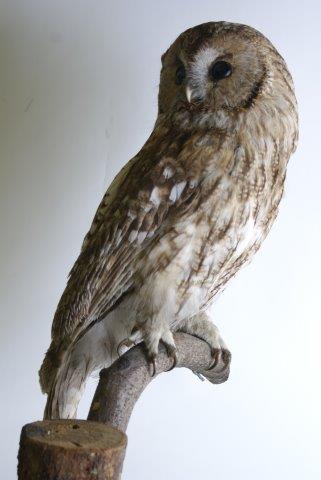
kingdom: Animalia
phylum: Chordata
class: Aves
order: Strigiformes
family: Strigidae
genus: Strix
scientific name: Strix aluco
